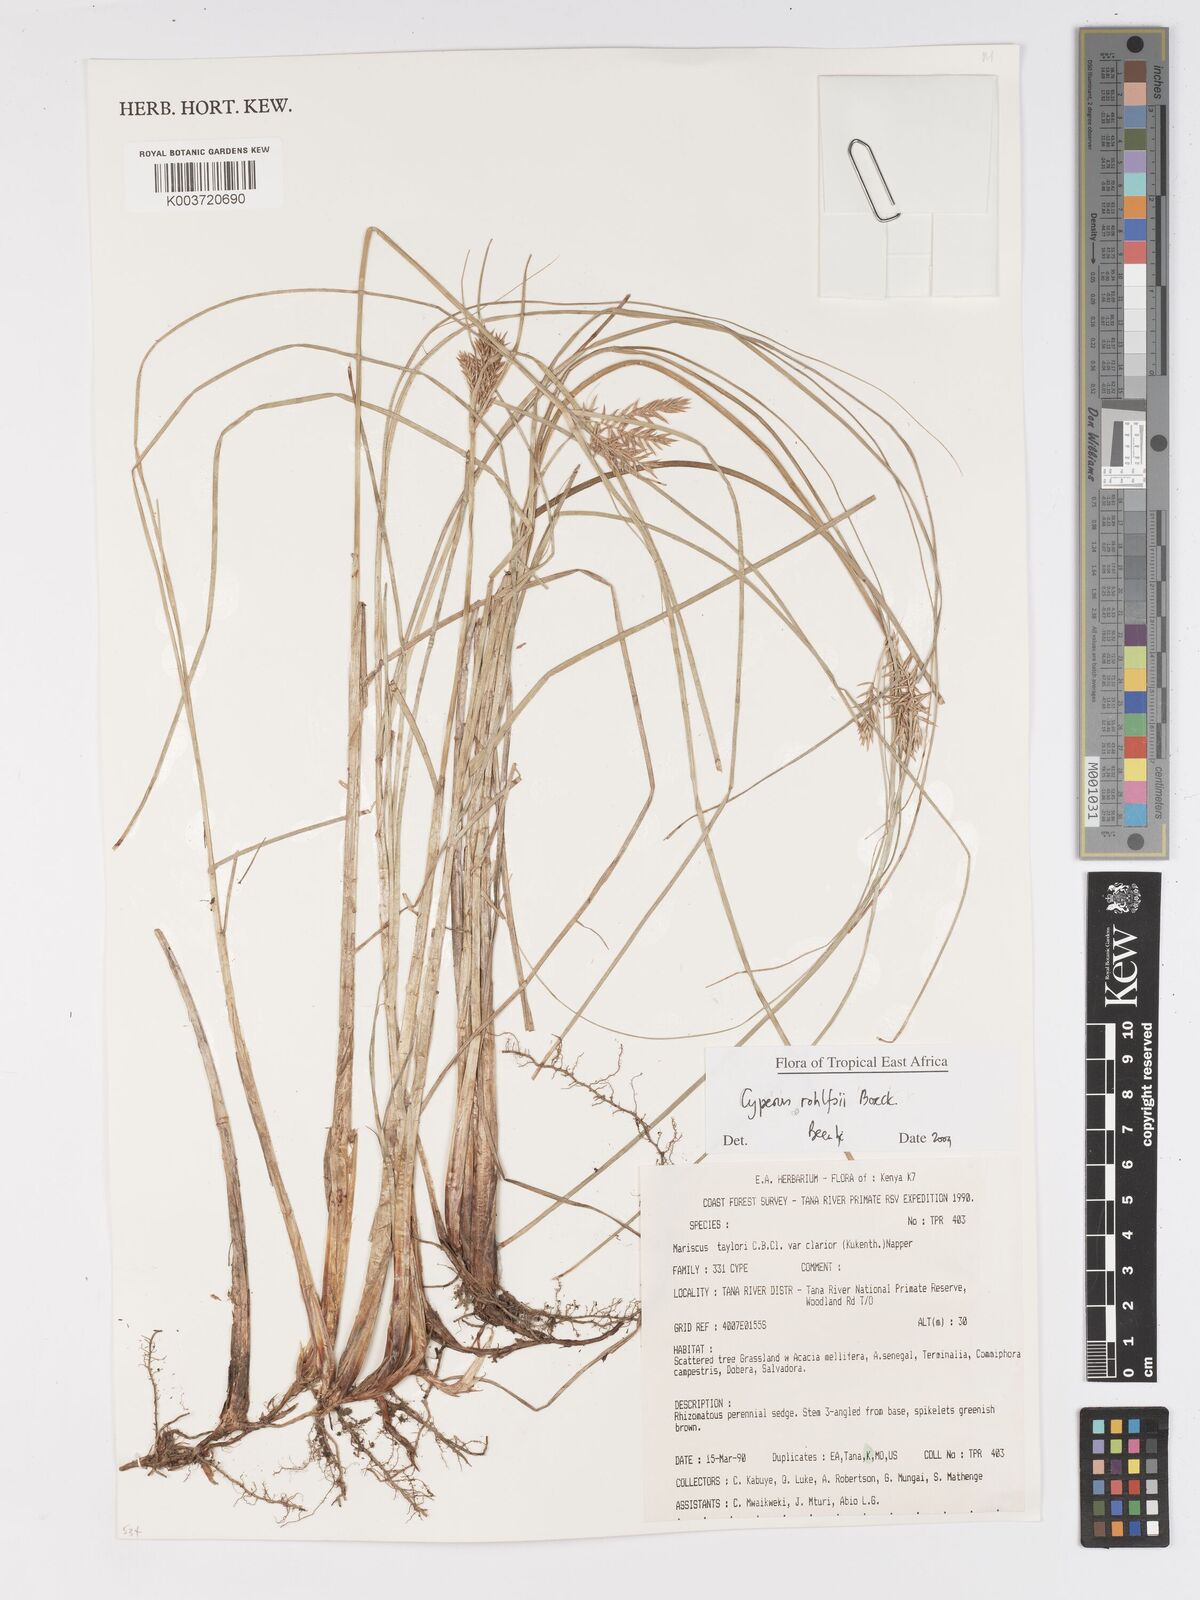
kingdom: Plantae
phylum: Tracheophyta
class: Liliopsida
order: Poales
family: Cyperaceae
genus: Cyperus
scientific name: Cyperus rohlfsii
